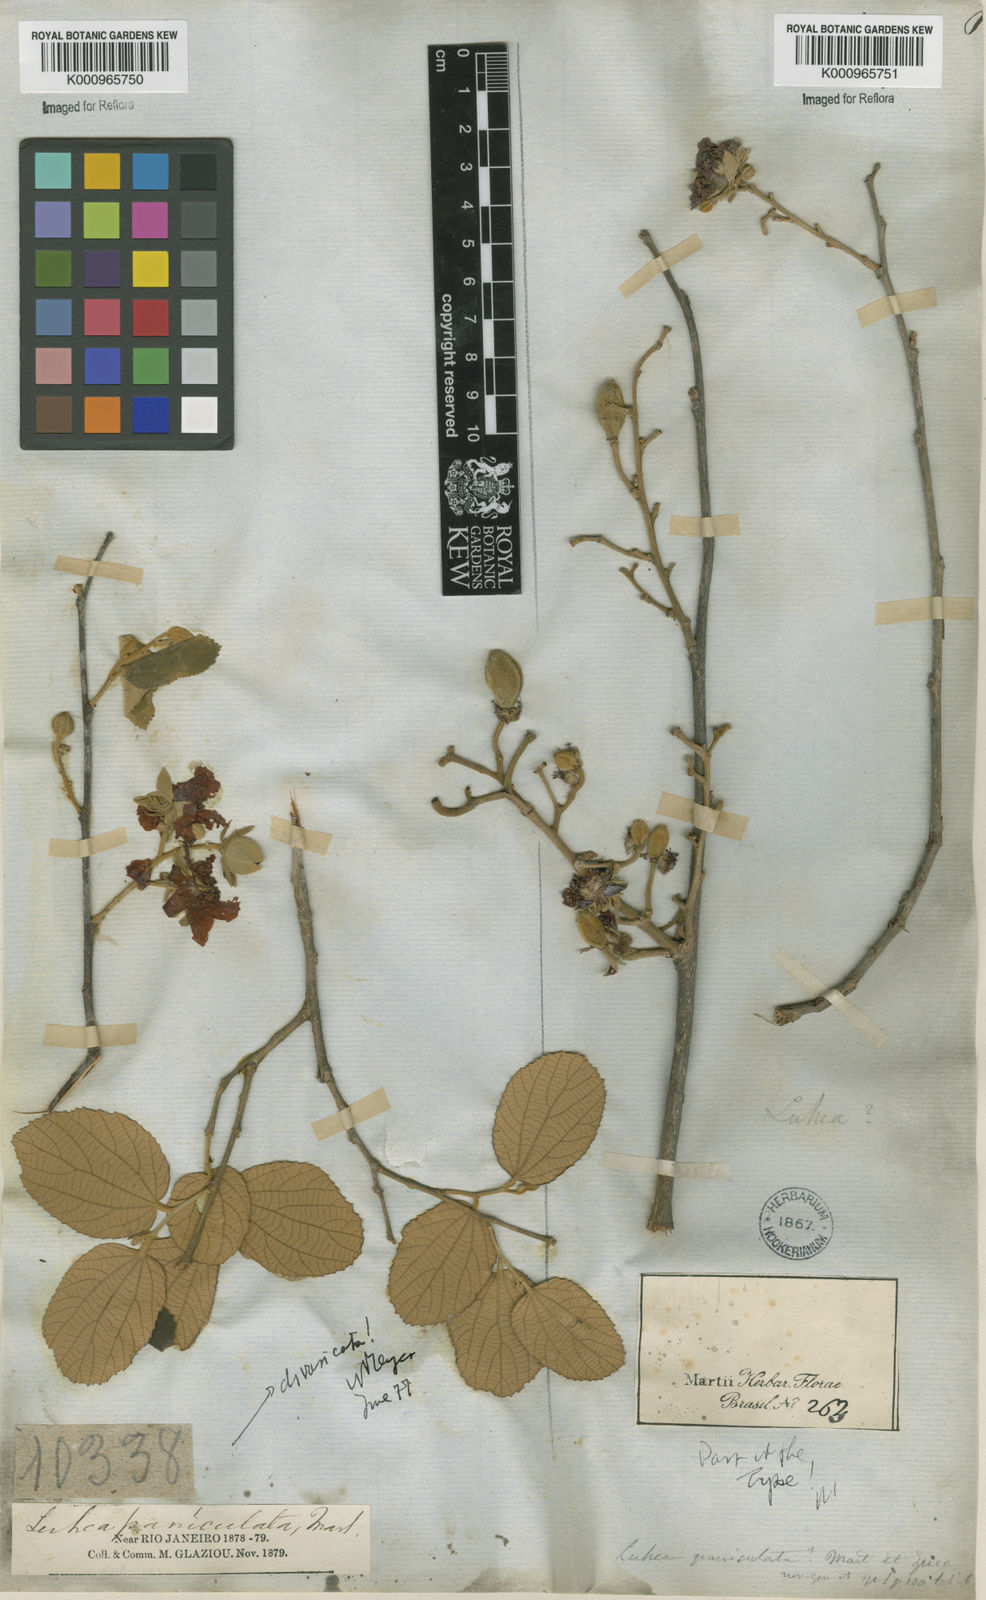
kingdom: Plantae
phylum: Tracheophyta
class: Magnoliopsida
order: Malvales
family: Malvaceae
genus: Luehea
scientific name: Luehea paniculata
